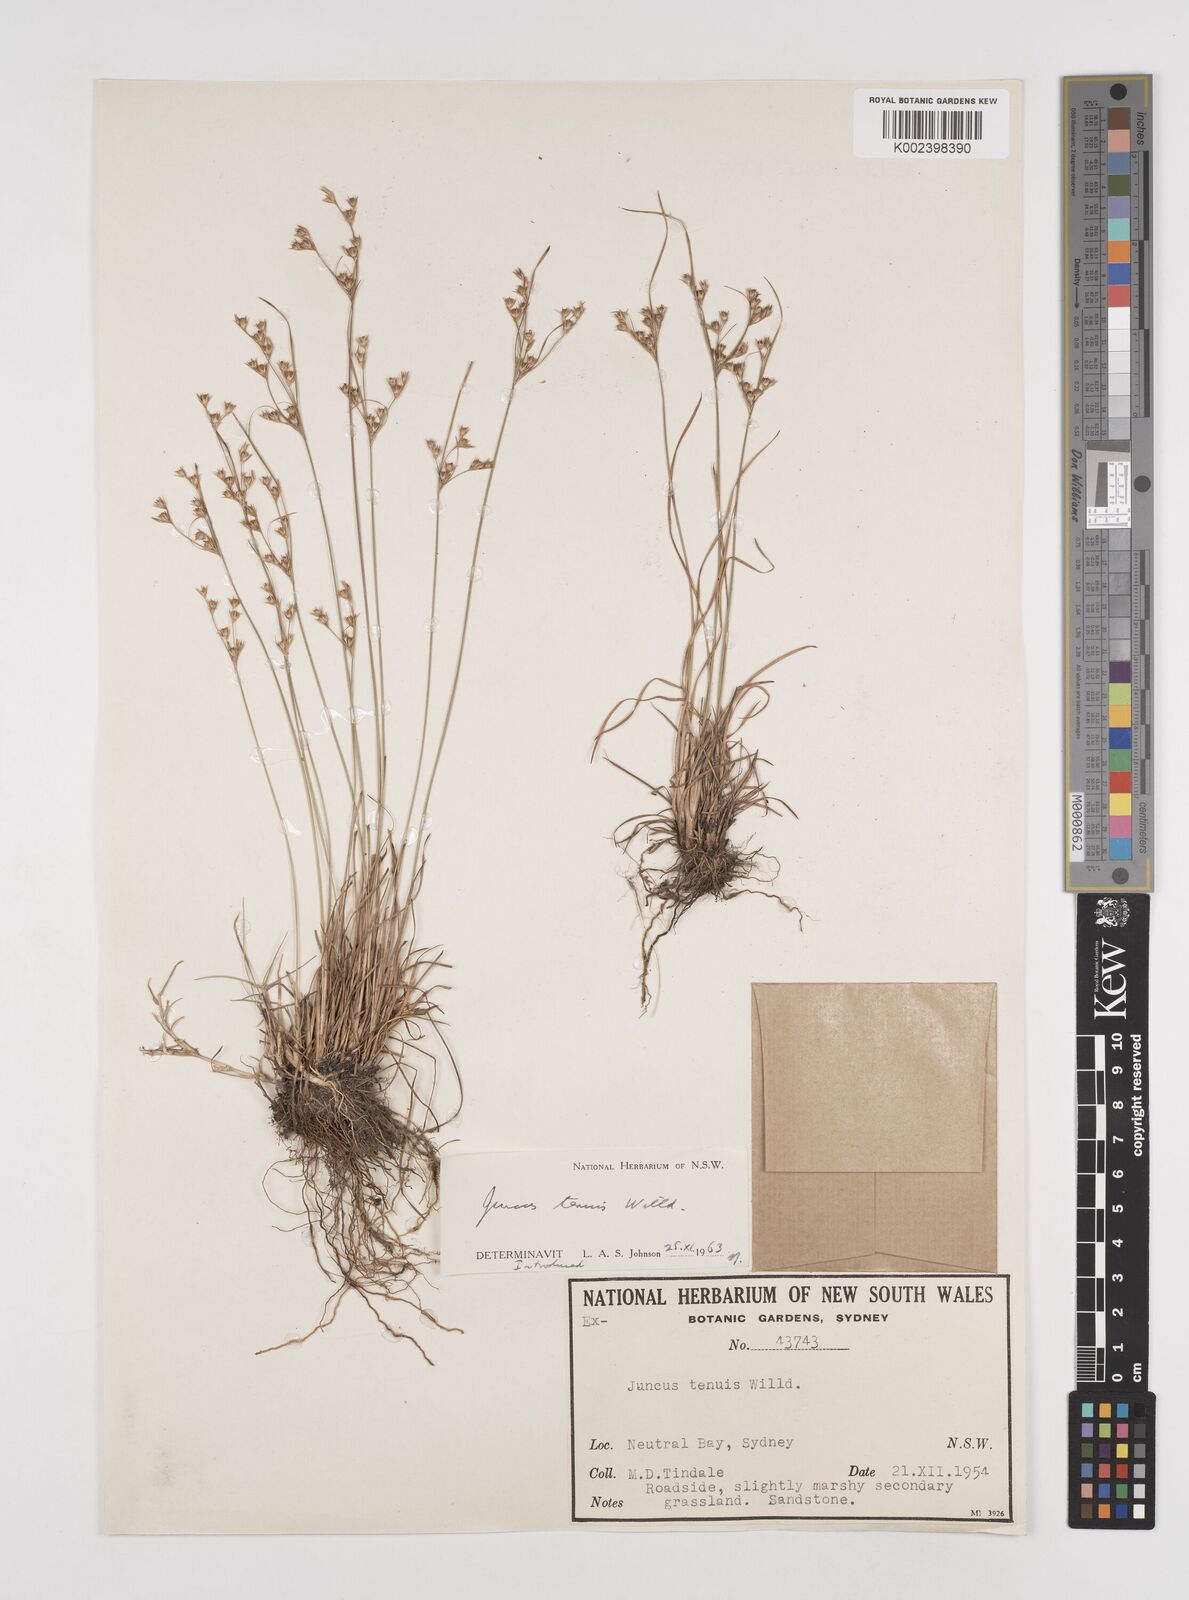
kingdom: Plantae
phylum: Tracheophyta
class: Liliopsida
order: Poales
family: Juncaceae
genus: Juncus
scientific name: Juncus tenuis
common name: Slender rush
